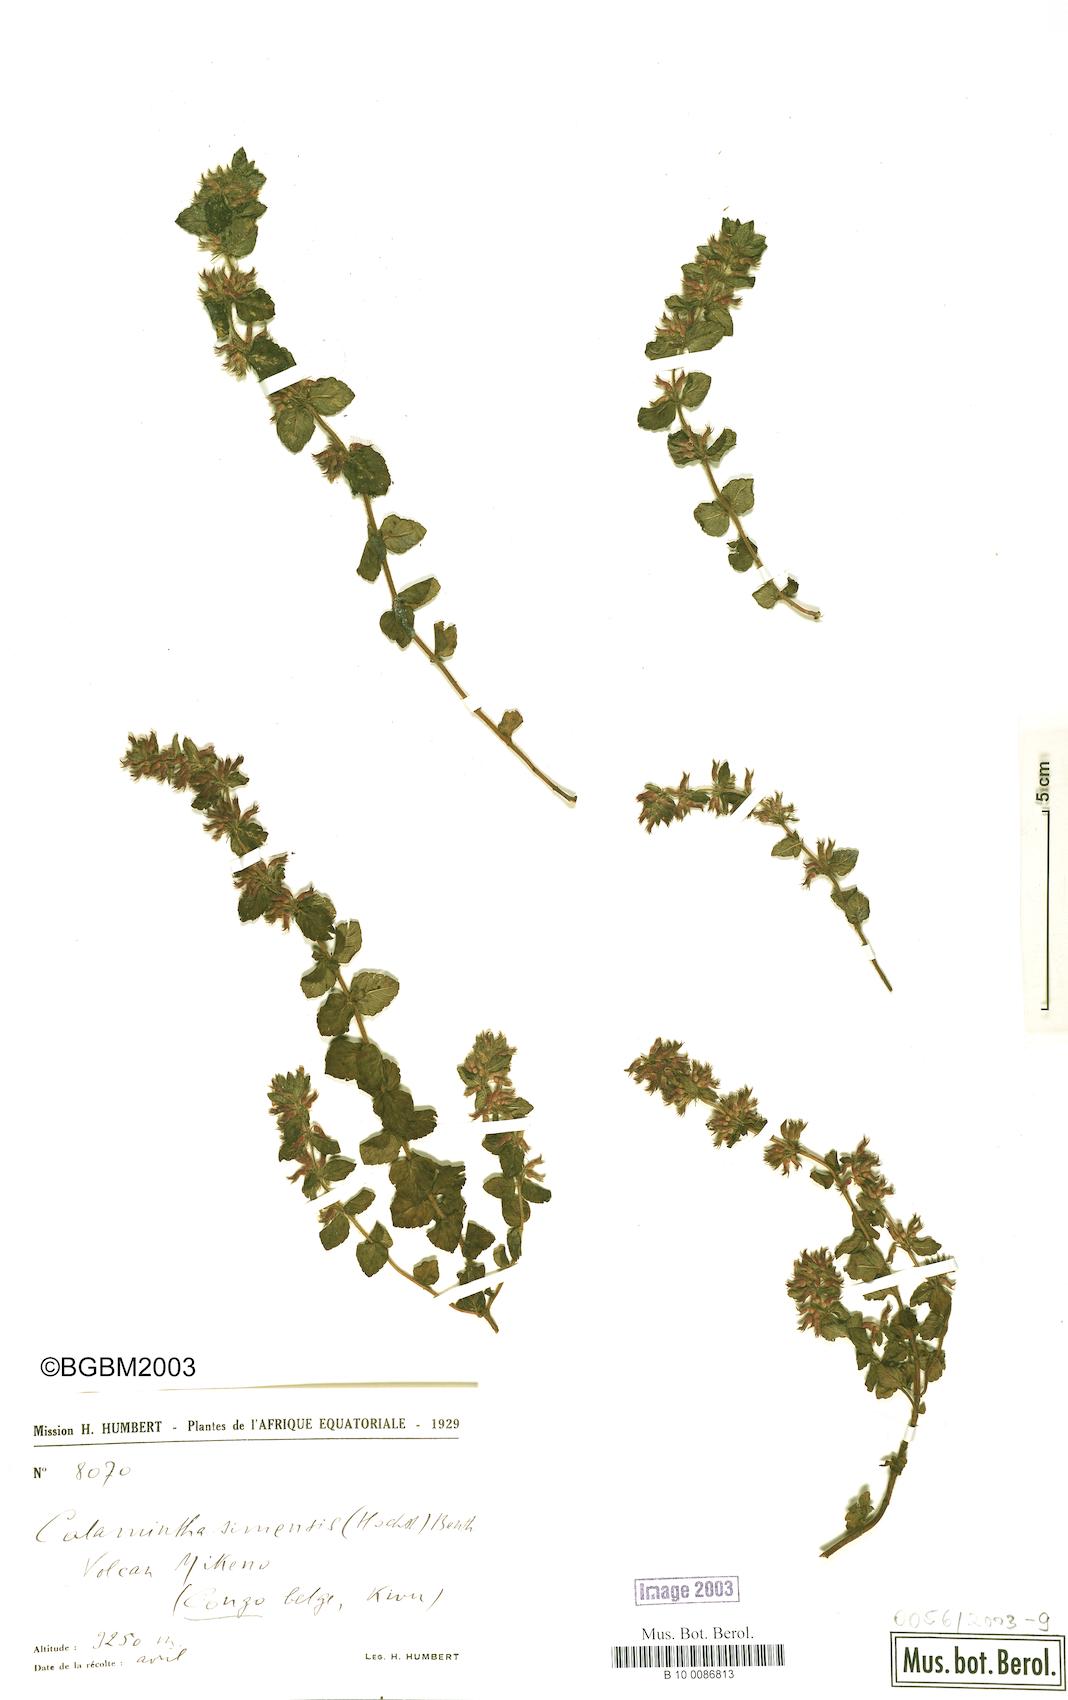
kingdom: Plantae
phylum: Tracheophyta
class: Magnoliopsida
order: Lamiales
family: Lamiaceae
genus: Clinopodium
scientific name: Clinopodium simense
